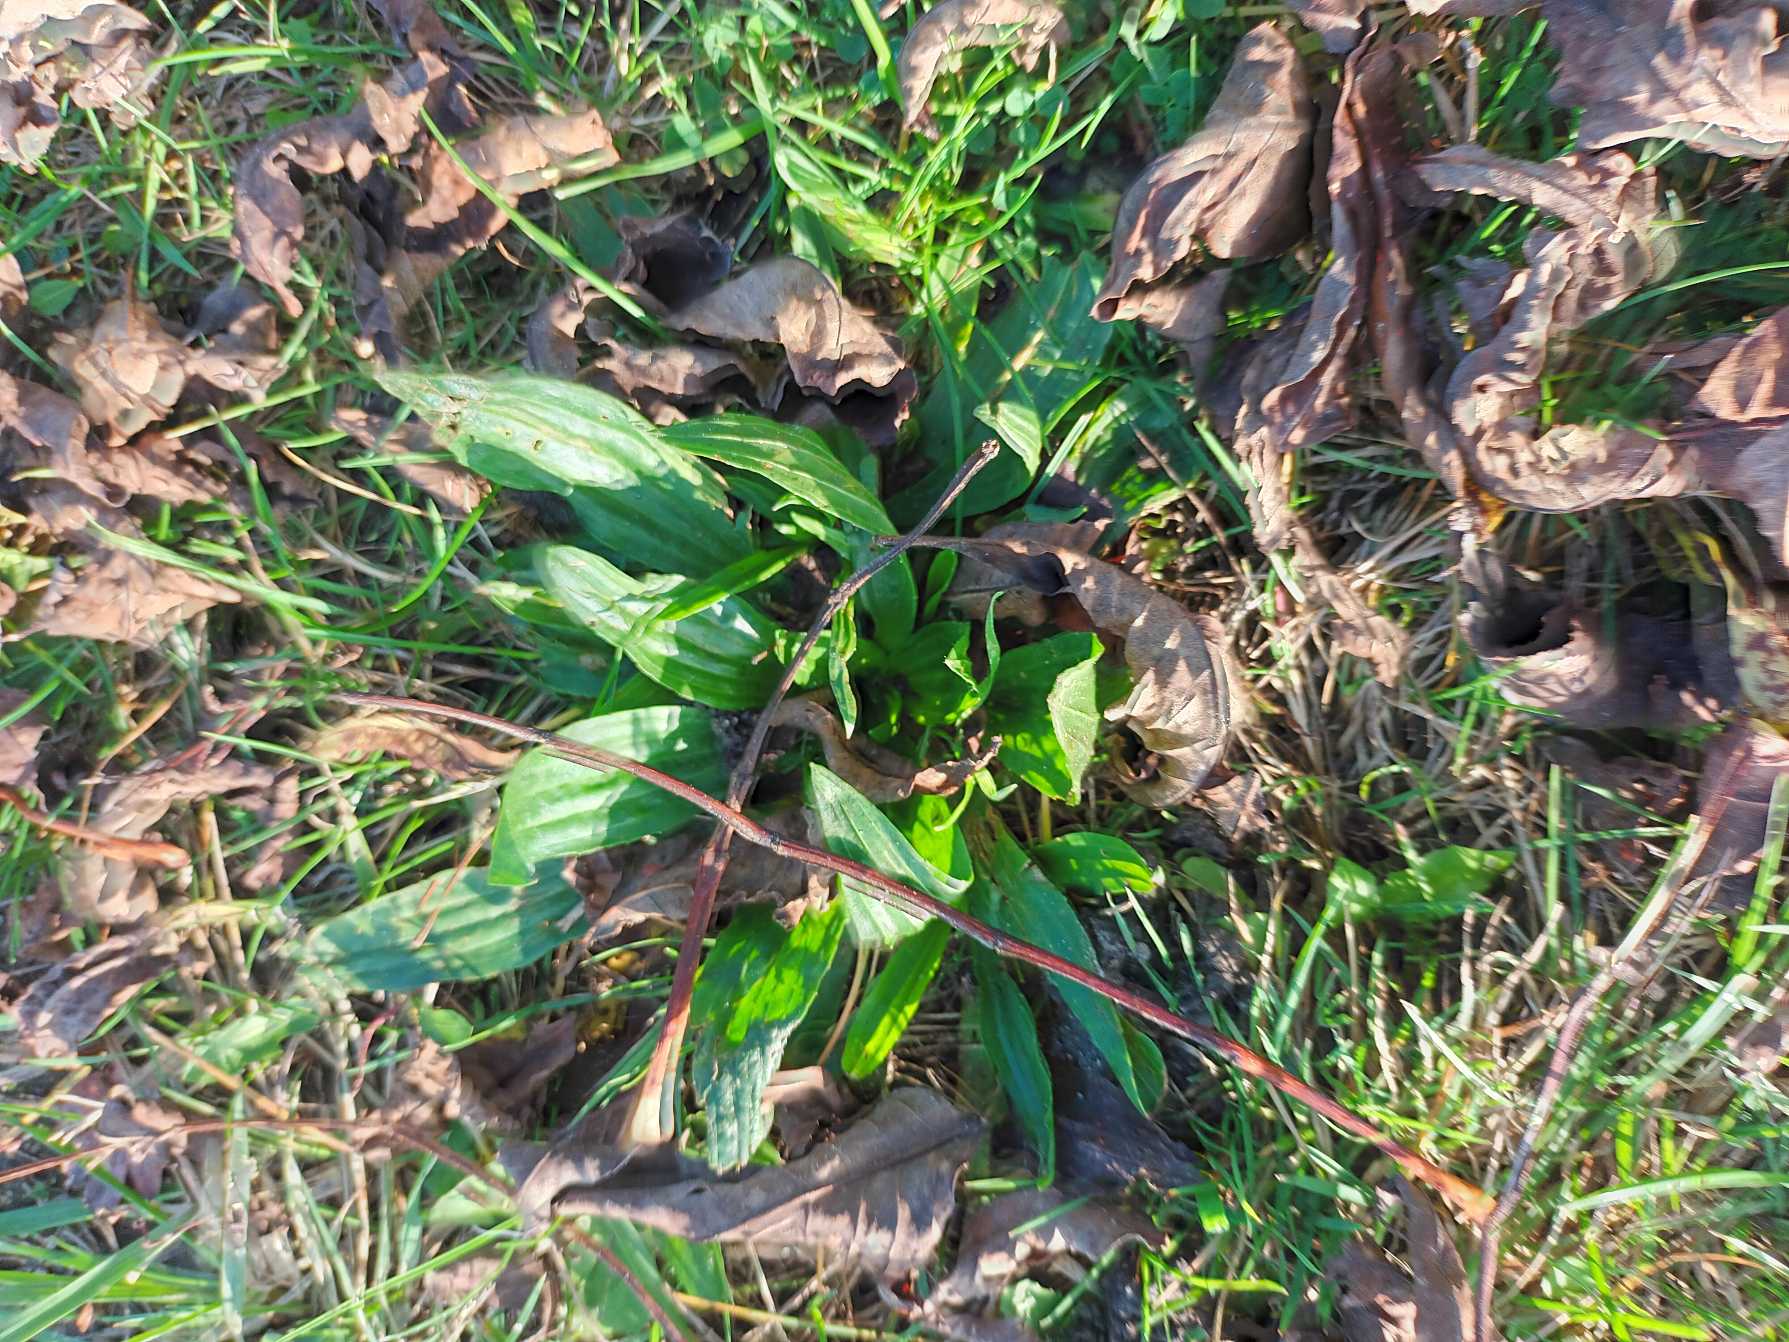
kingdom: Plantae
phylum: Tracheophyta
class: Magnoliopsida
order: Lamiales
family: Plantaginaceae
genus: Plantago
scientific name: Plantago lanceolata
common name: Lancet-vejbred
